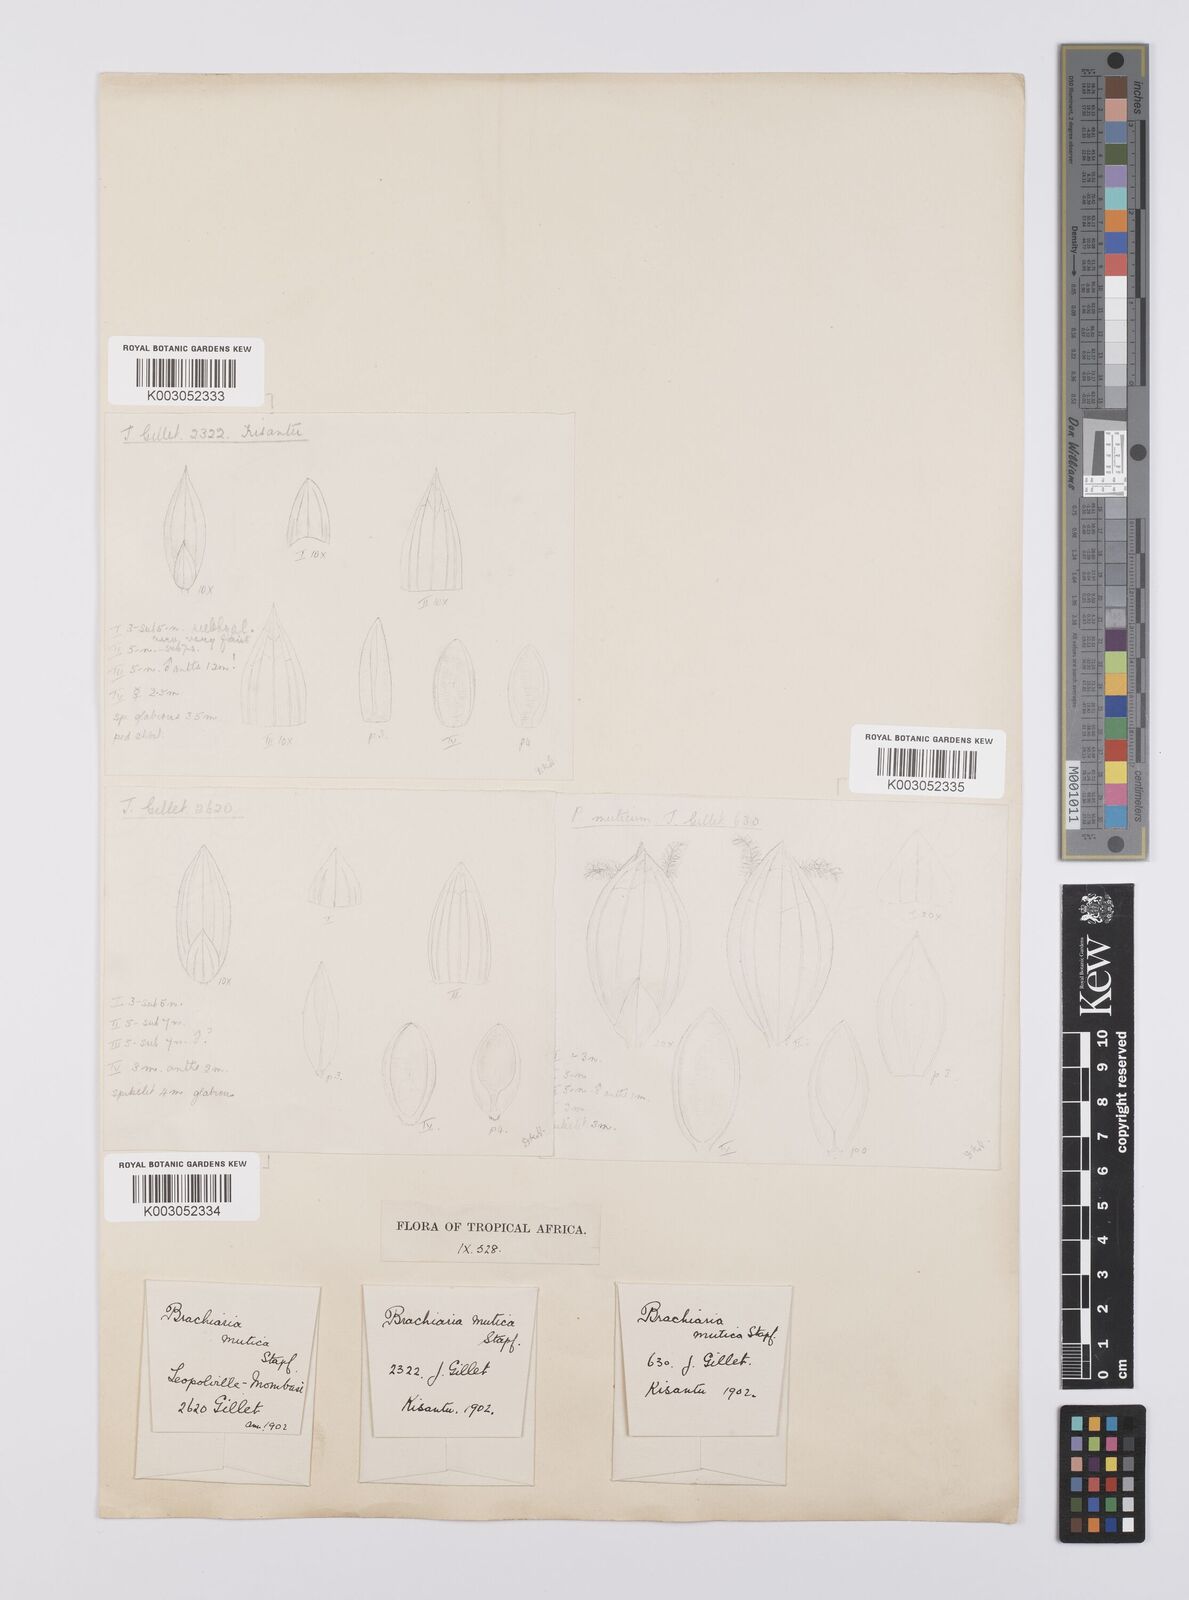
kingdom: Plantae
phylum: Tracheophyta
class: Liliopsida
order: Poales
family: Poaceae
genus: Urochloa
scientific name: Urochloa mutica
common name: Para grass
